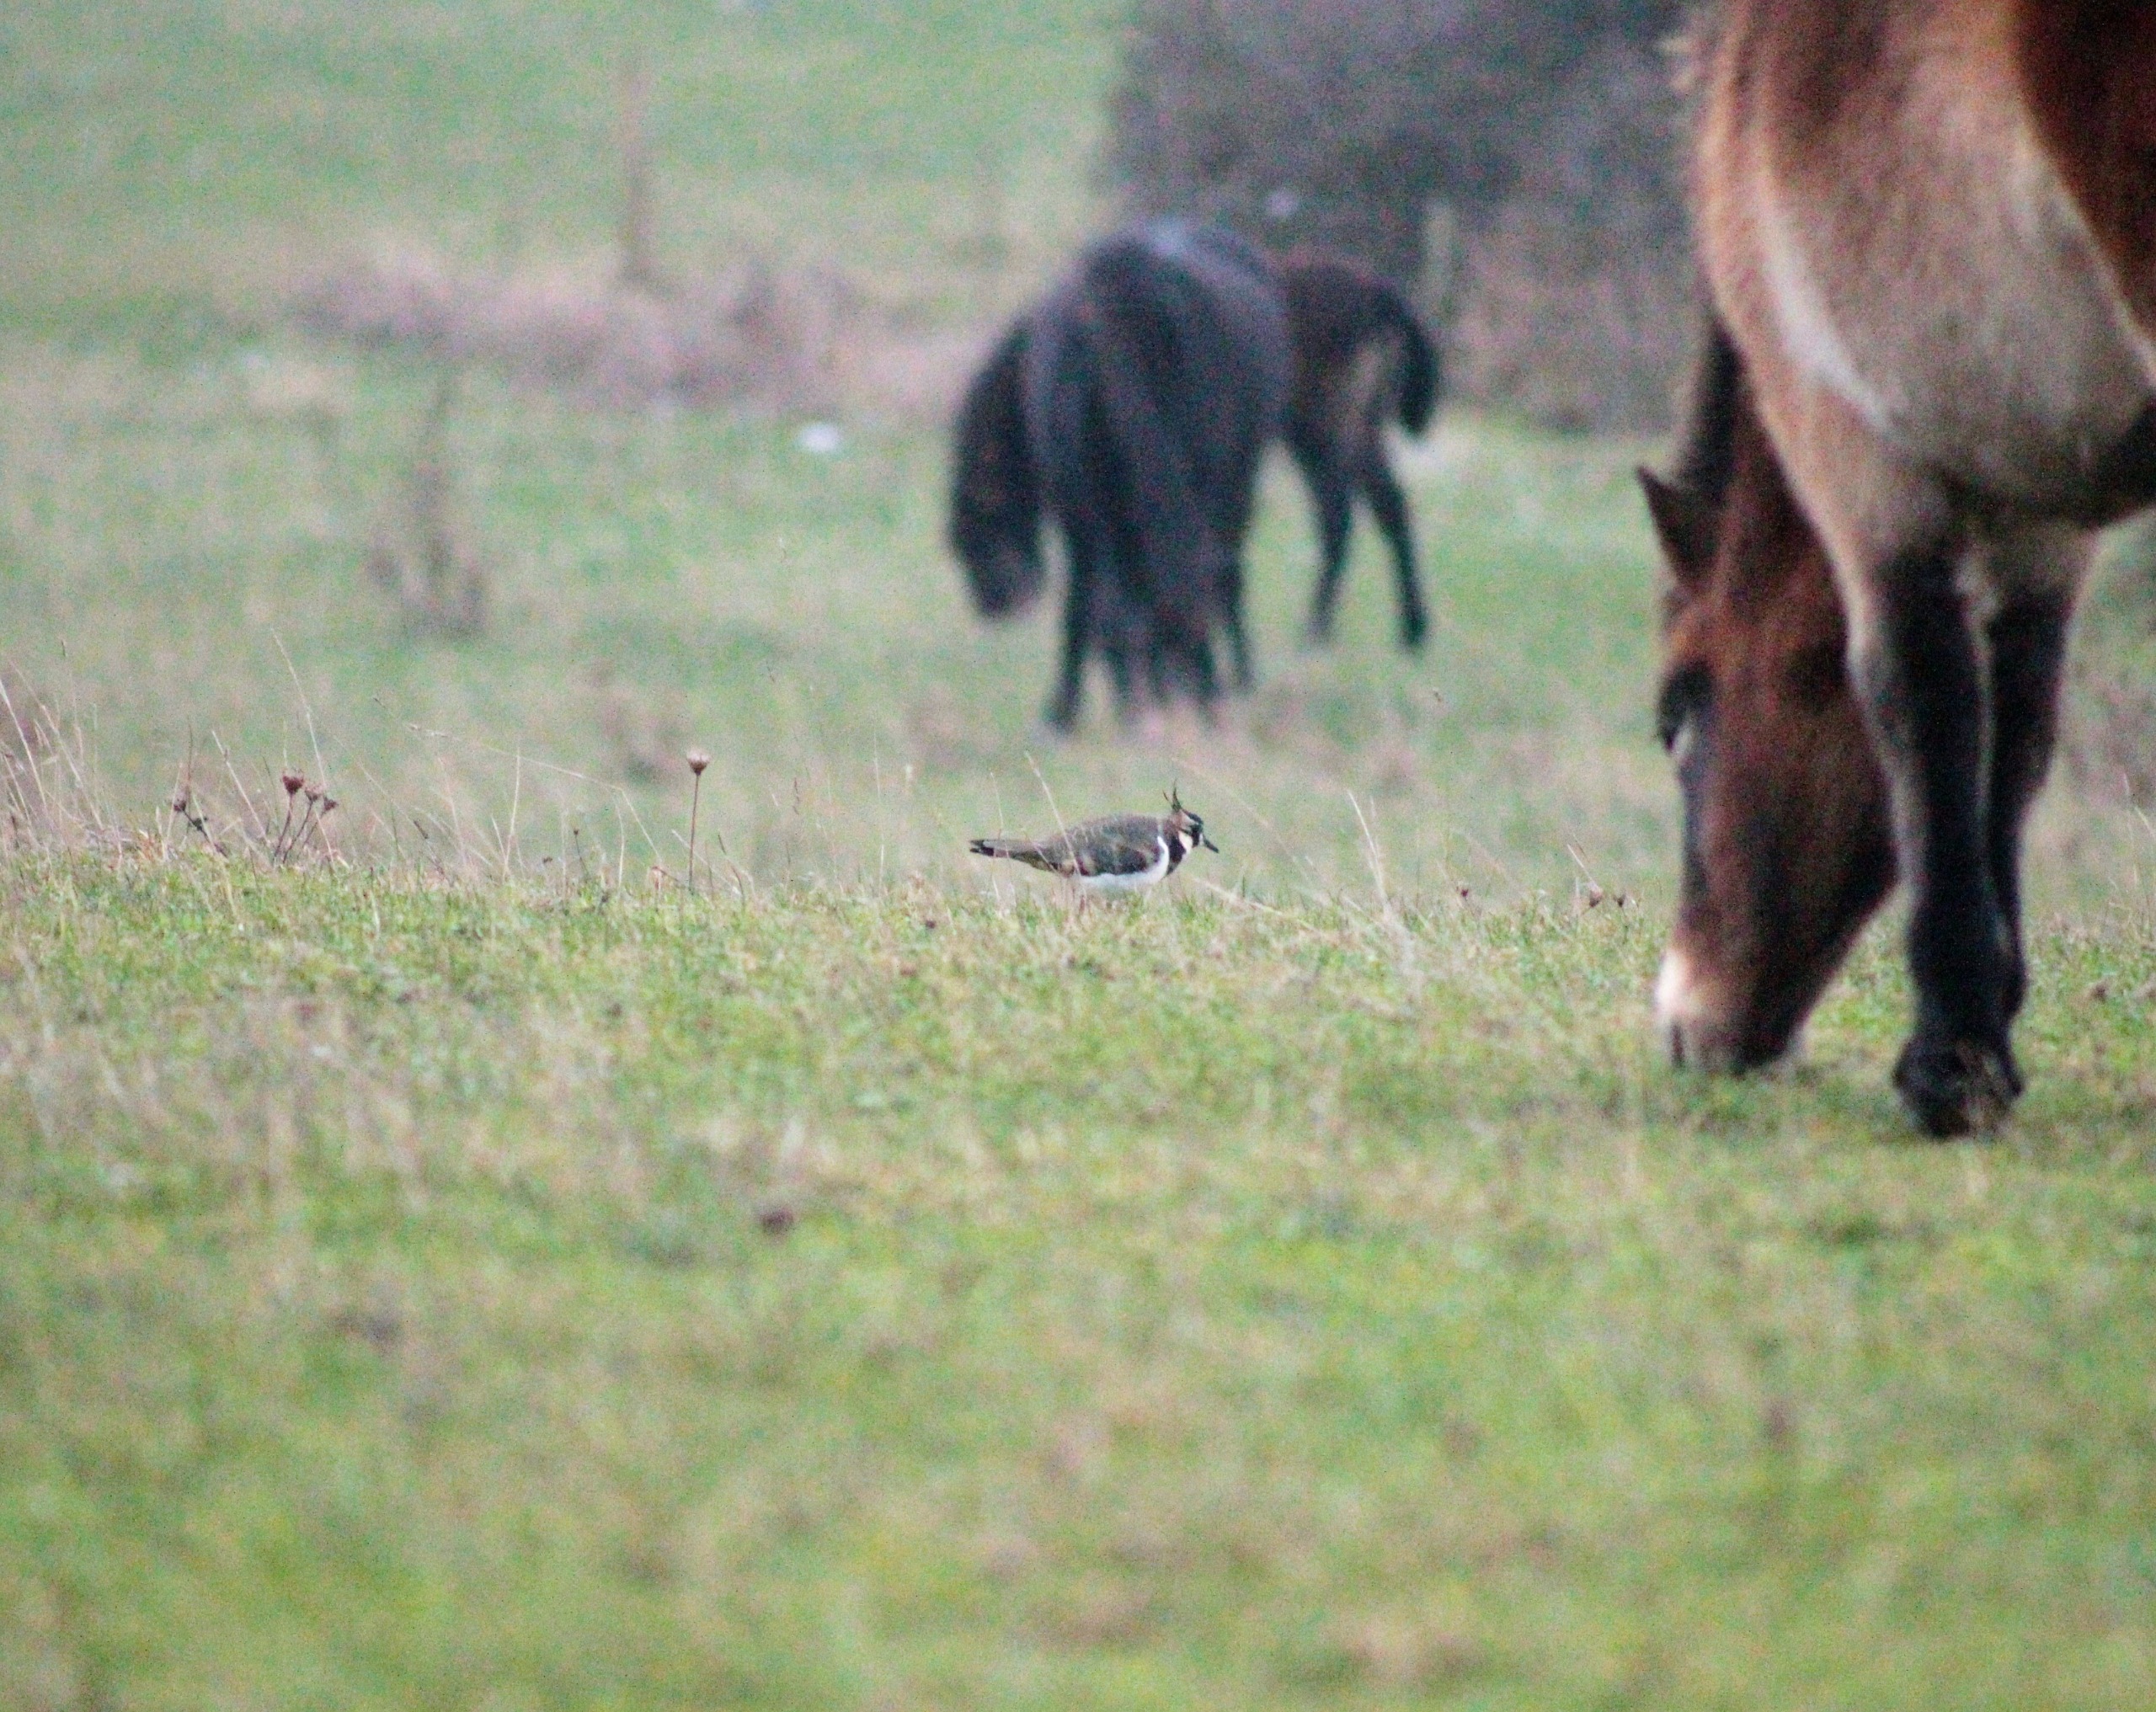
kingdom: Animalia
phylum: Chordata
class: Aves
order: Charadriiformes
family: Charadriidae
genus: Vanellus
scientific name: Vanellus vanellus
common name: Vibe
